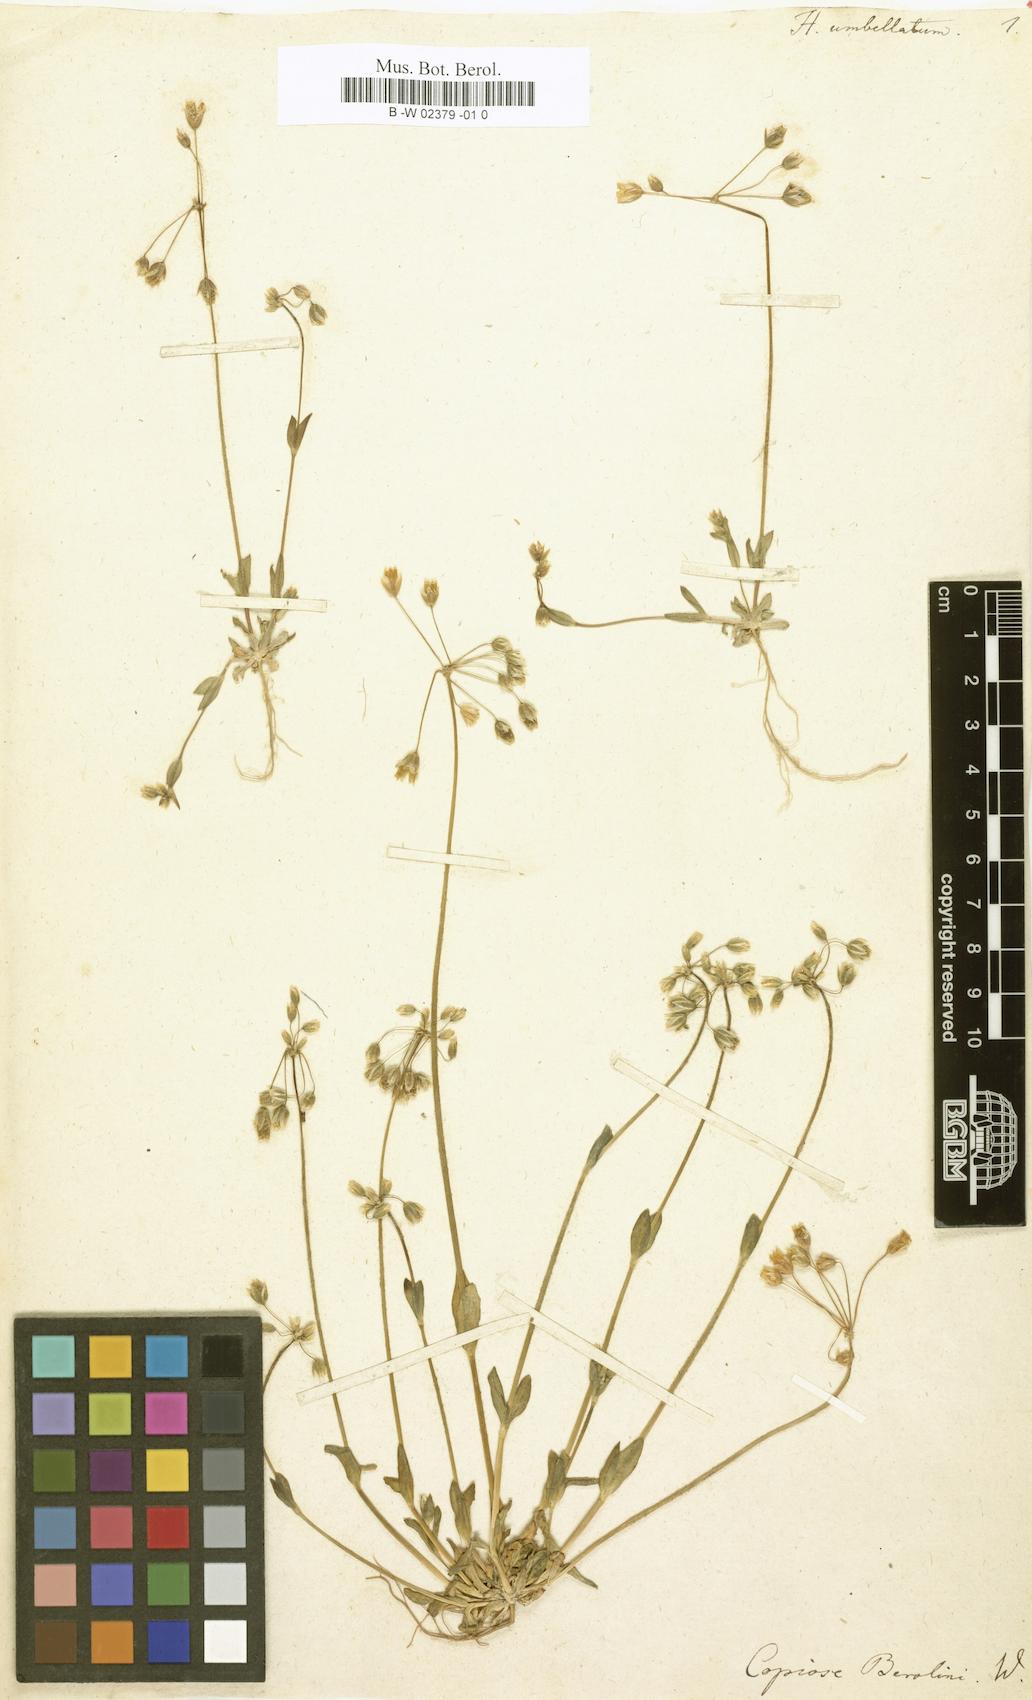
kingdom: Plantae
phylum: Tracheophyta
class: Magnoliopsida
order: Caryophyllales
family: Caryophyllaceae
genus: Holosteum
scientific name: Holosteum umbellatum
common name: Jagged chickweed
